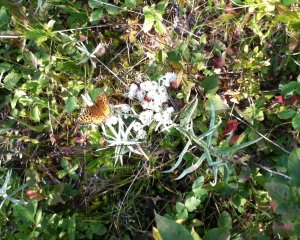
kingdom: Animalia
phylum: Arthropoda
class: Insecta
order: Lepidoptera
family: Nymphalidae
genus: Speyeria
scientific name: Speyeria aphrodite
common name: Aphrodite Fritillary
